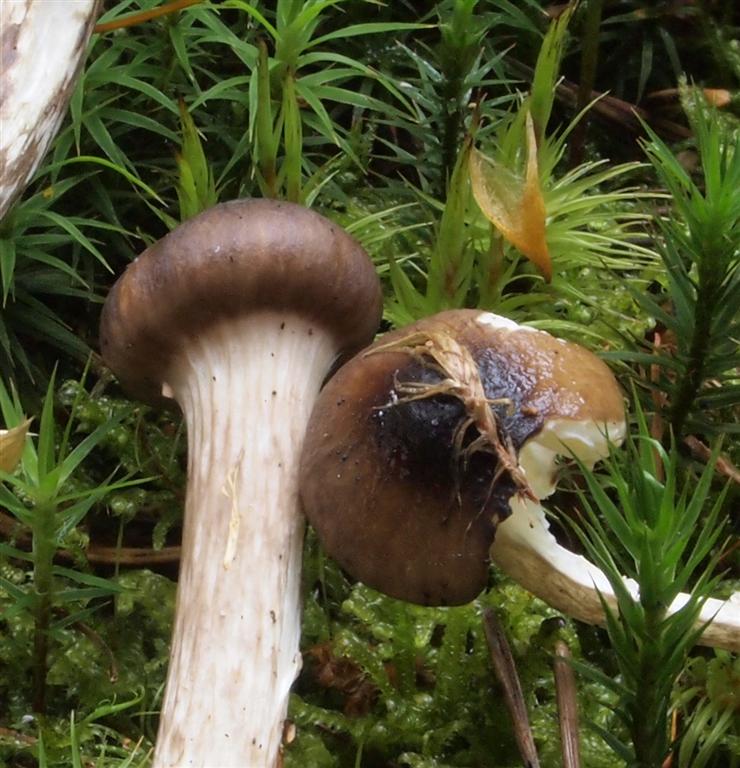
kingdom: Fungi
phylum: Basidiomycota
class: Agaricomycetes
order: Agaricales
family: Hygrophoraceae
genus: Hygrophorus
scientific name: Hygrophorus olivaceoalbus
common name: hvidbrun sneglehat
